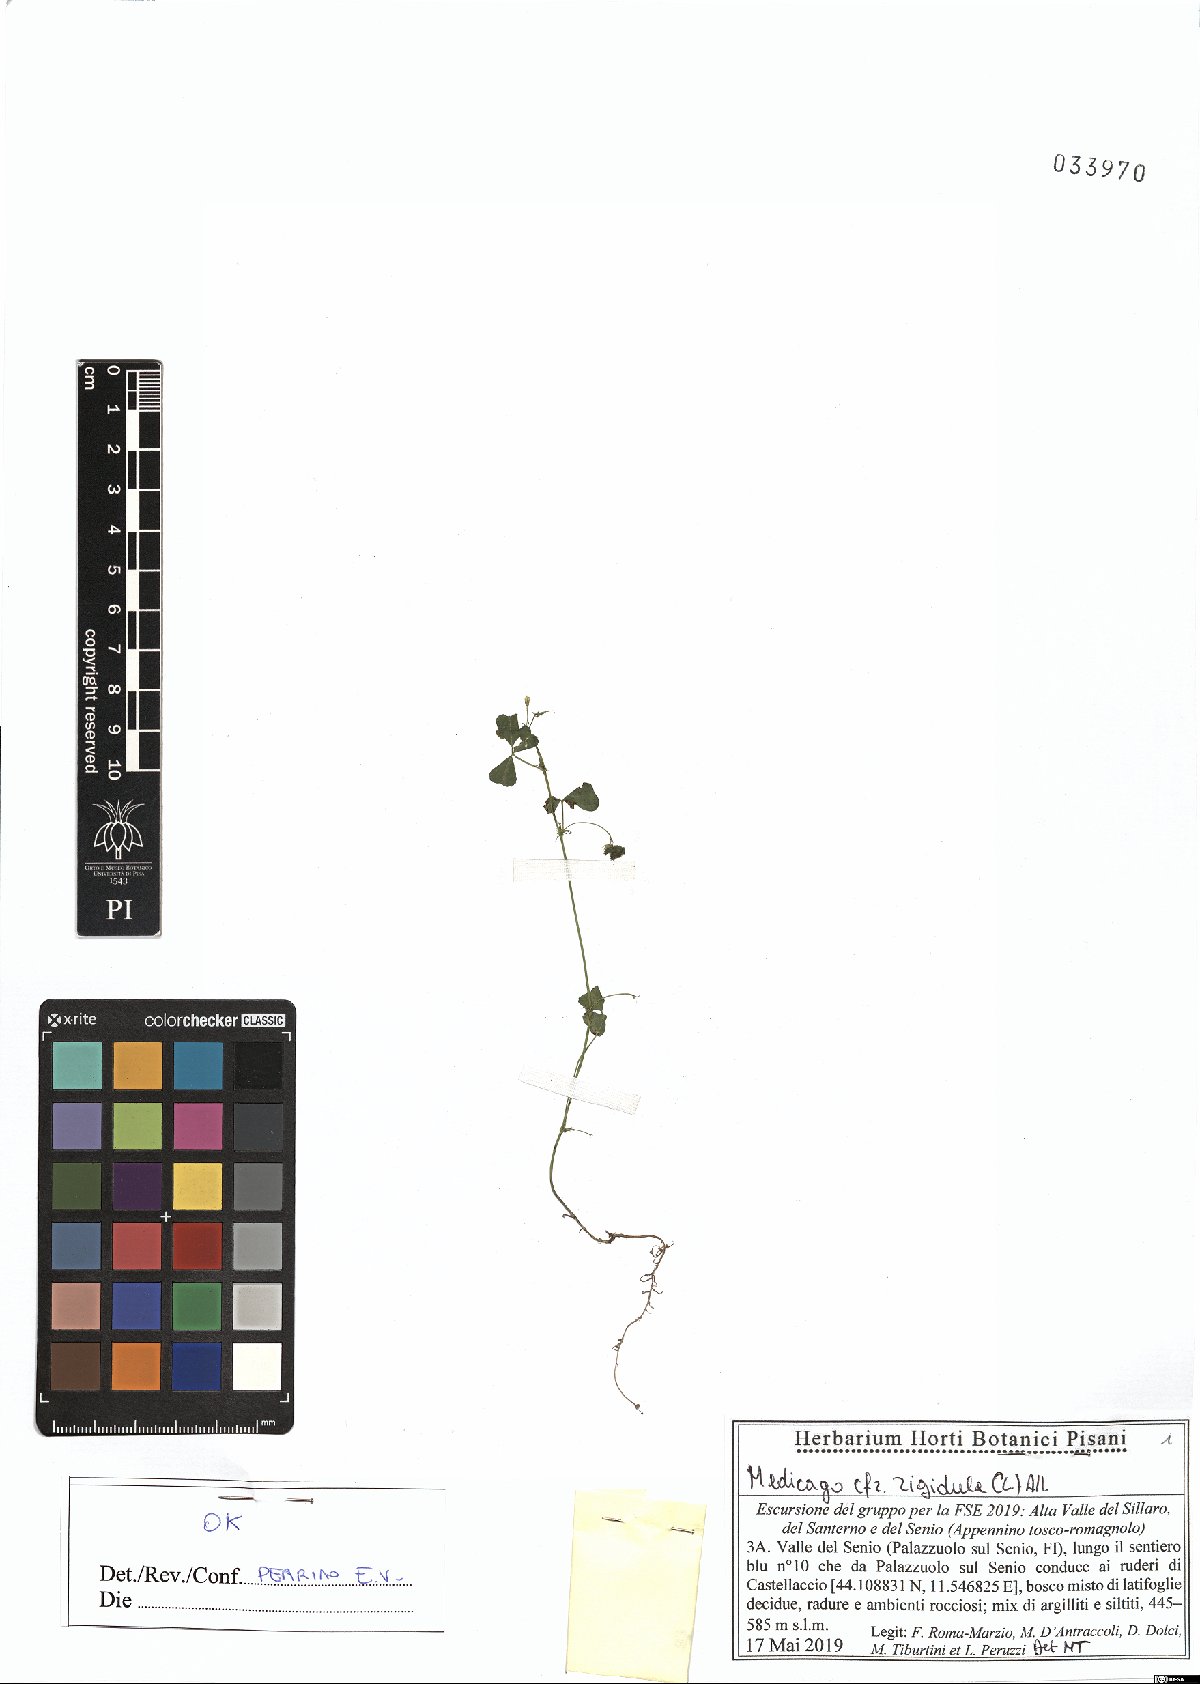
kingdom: Plantae
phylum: Tracheophyta
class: Magnoliopsida
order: Fabales
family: Fabaceae
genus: Medicago
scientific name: Medicago rigidula
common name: Tifton medic
